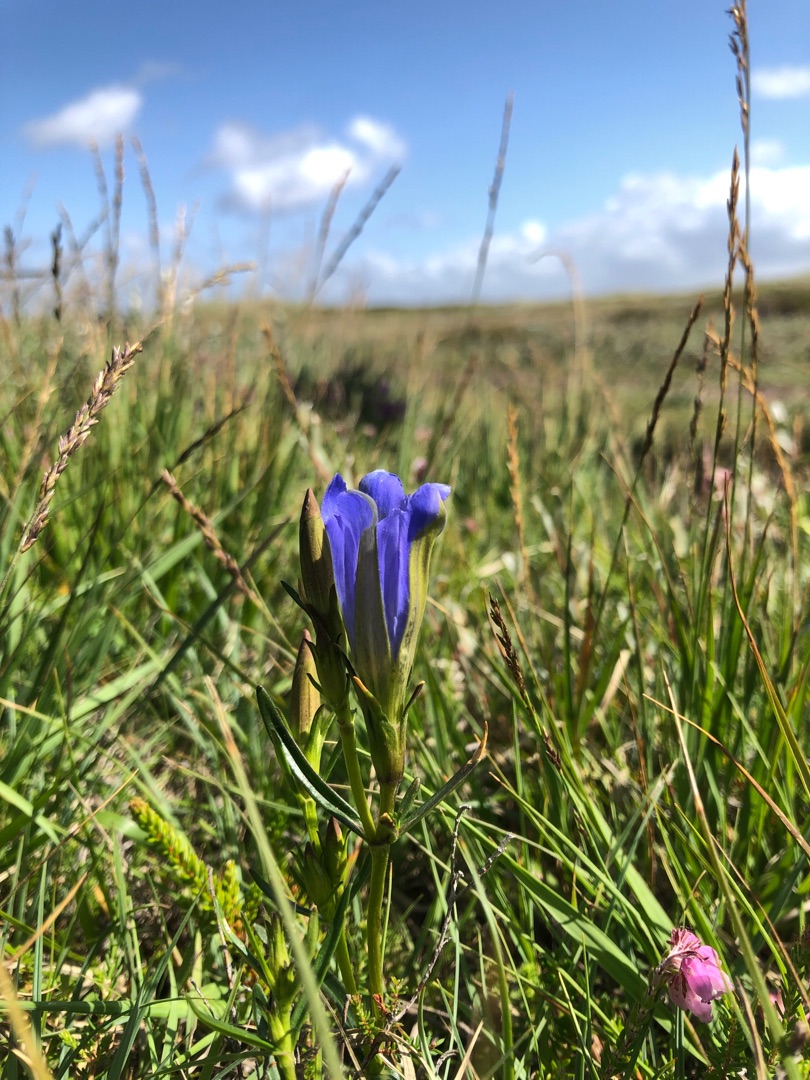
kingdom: Plantae
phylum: Tracheophyta
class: Magnoliopsida
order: Gentianales
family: Gentianaceae
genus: Gentiana
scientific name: Gentiana pneumonanthe
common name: Klokke-ensian
